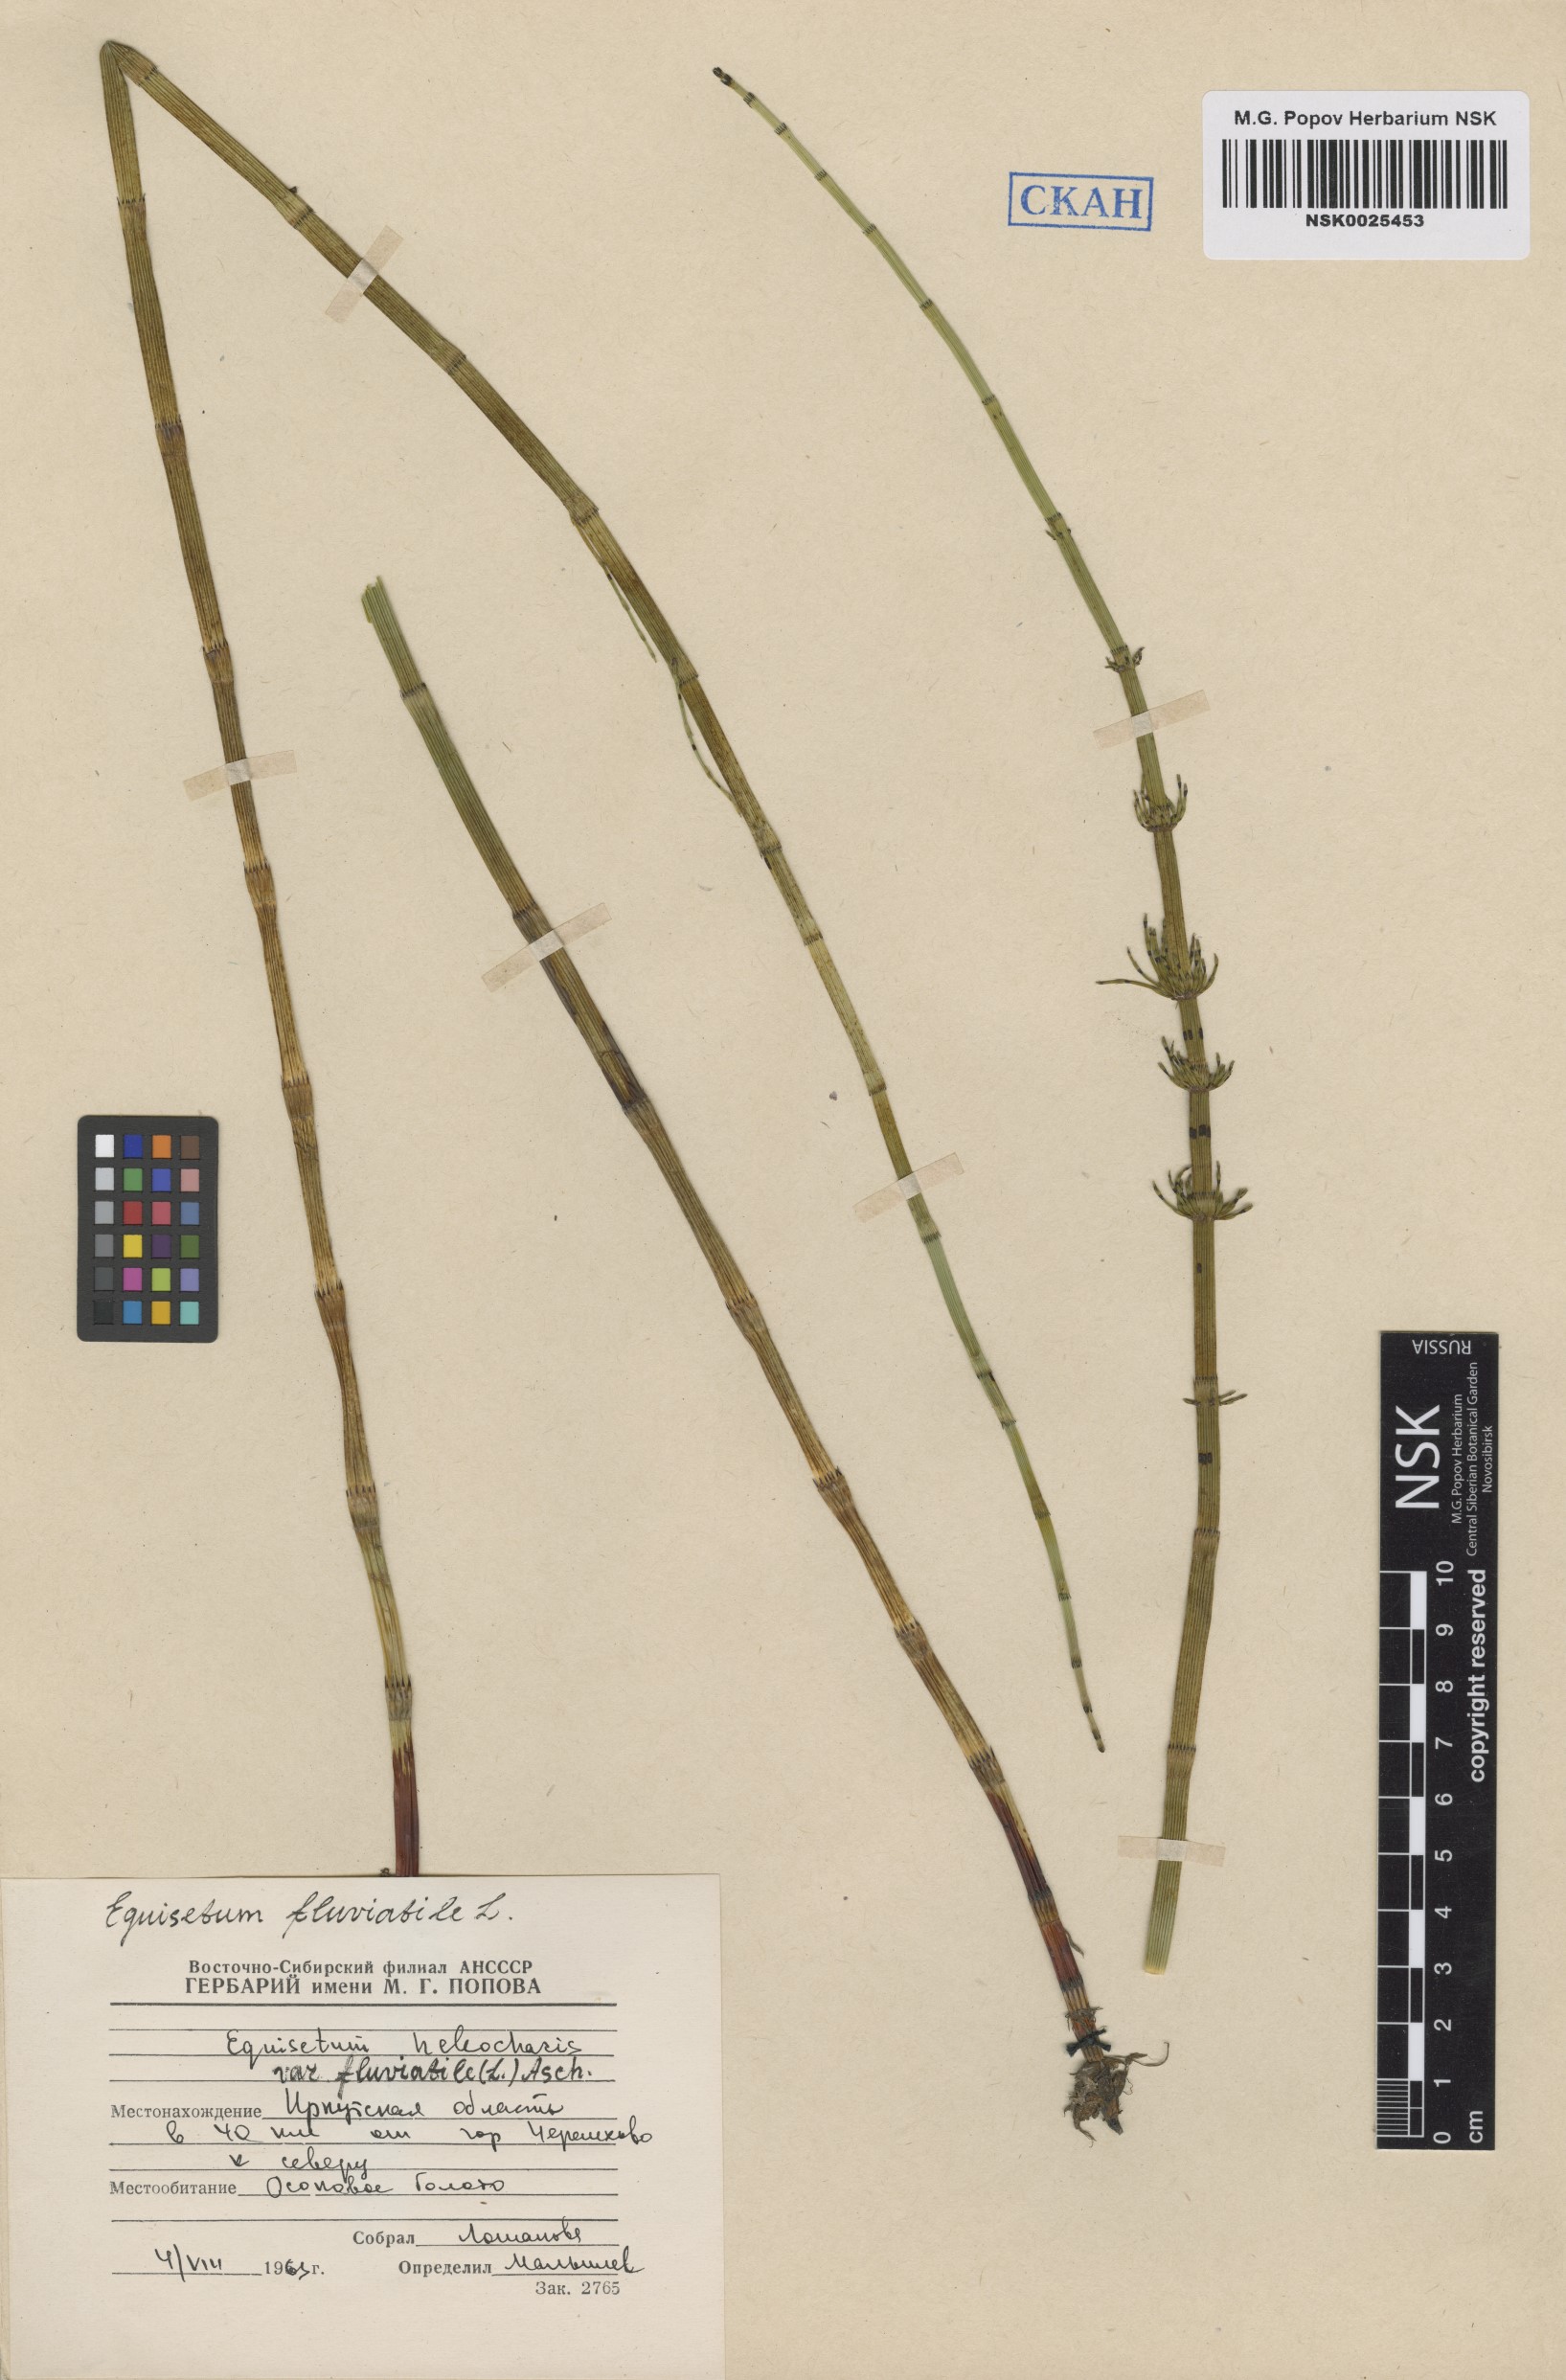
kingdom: Plantae
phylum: Tracheophyta
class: Polypodiopsida
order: Equisetales
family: Equisetaceae
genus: Equisetum
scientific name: Equisetum fluviatile
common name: Water horsetail
